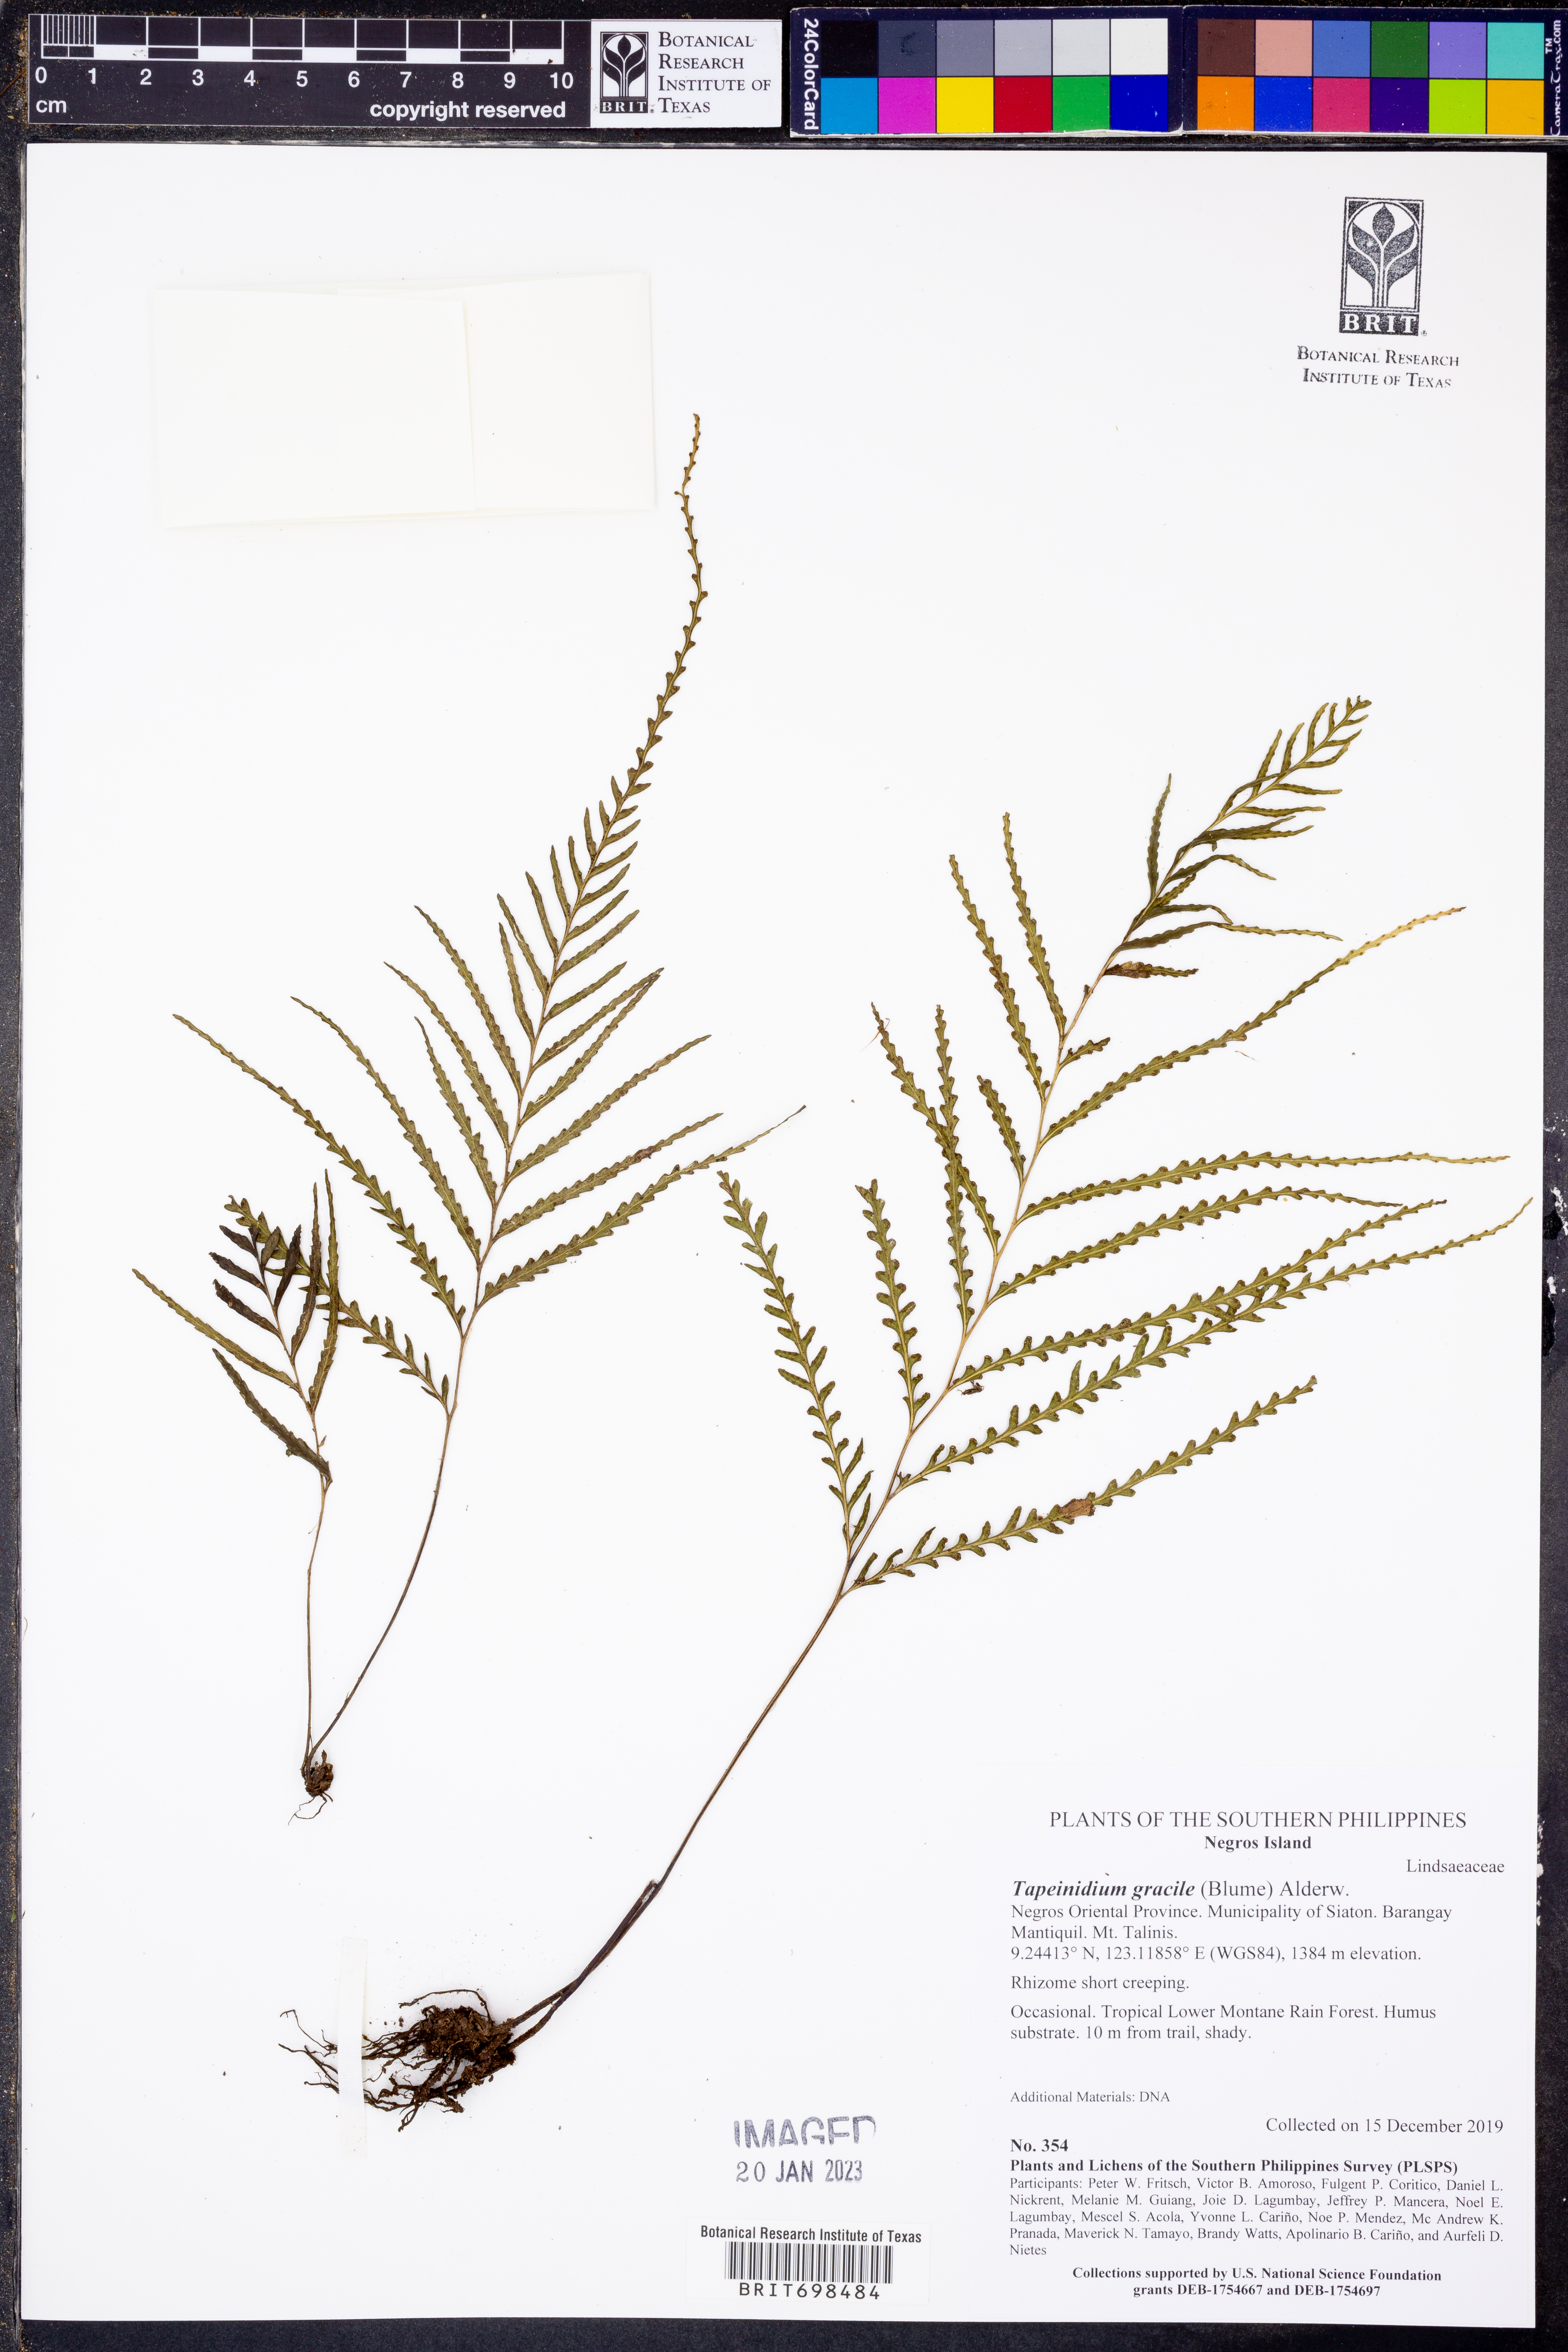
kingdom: Plantae
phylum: Tracheophyta
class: Polypodiopsida
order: Polypodiales
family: Lindsaeaceae
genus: Tapeinidium
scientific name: Tapeinidium gracile
